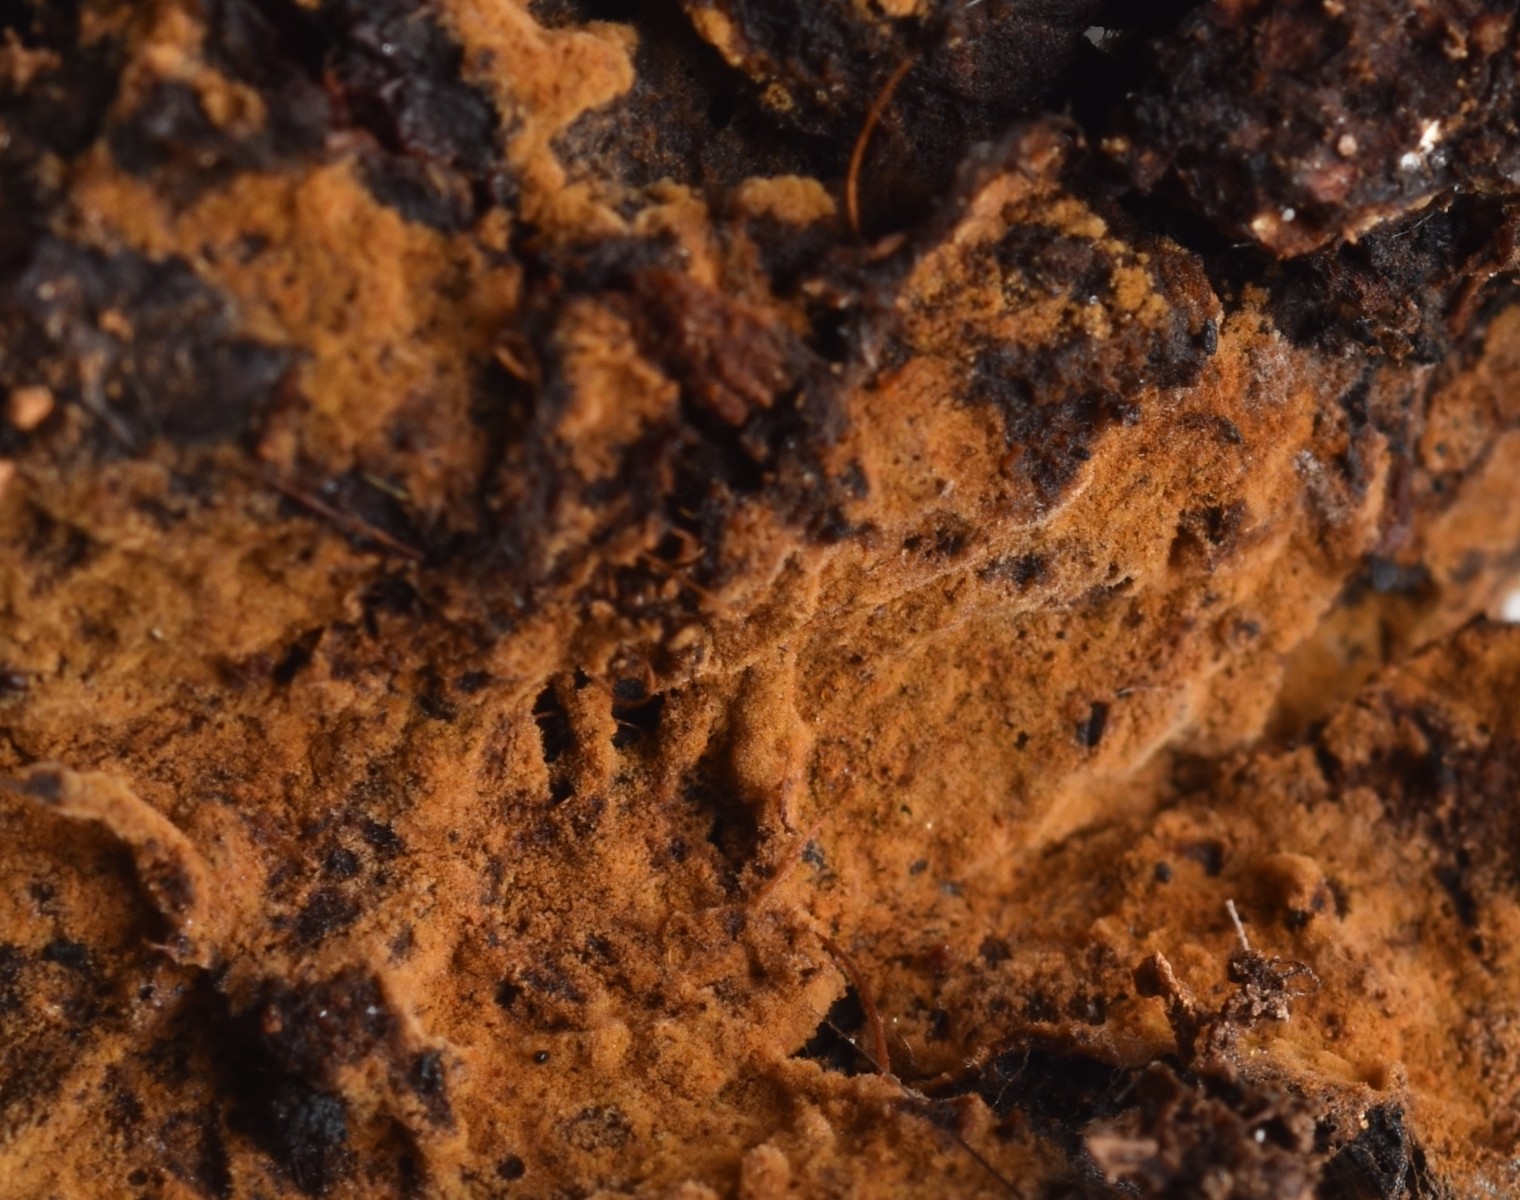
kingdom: Fungi
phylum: Basidiomycota
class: Agaricomycetes
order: Thelephorales
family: Thelephoraceae
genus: Tomentella
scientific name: Tomentella bryophila
